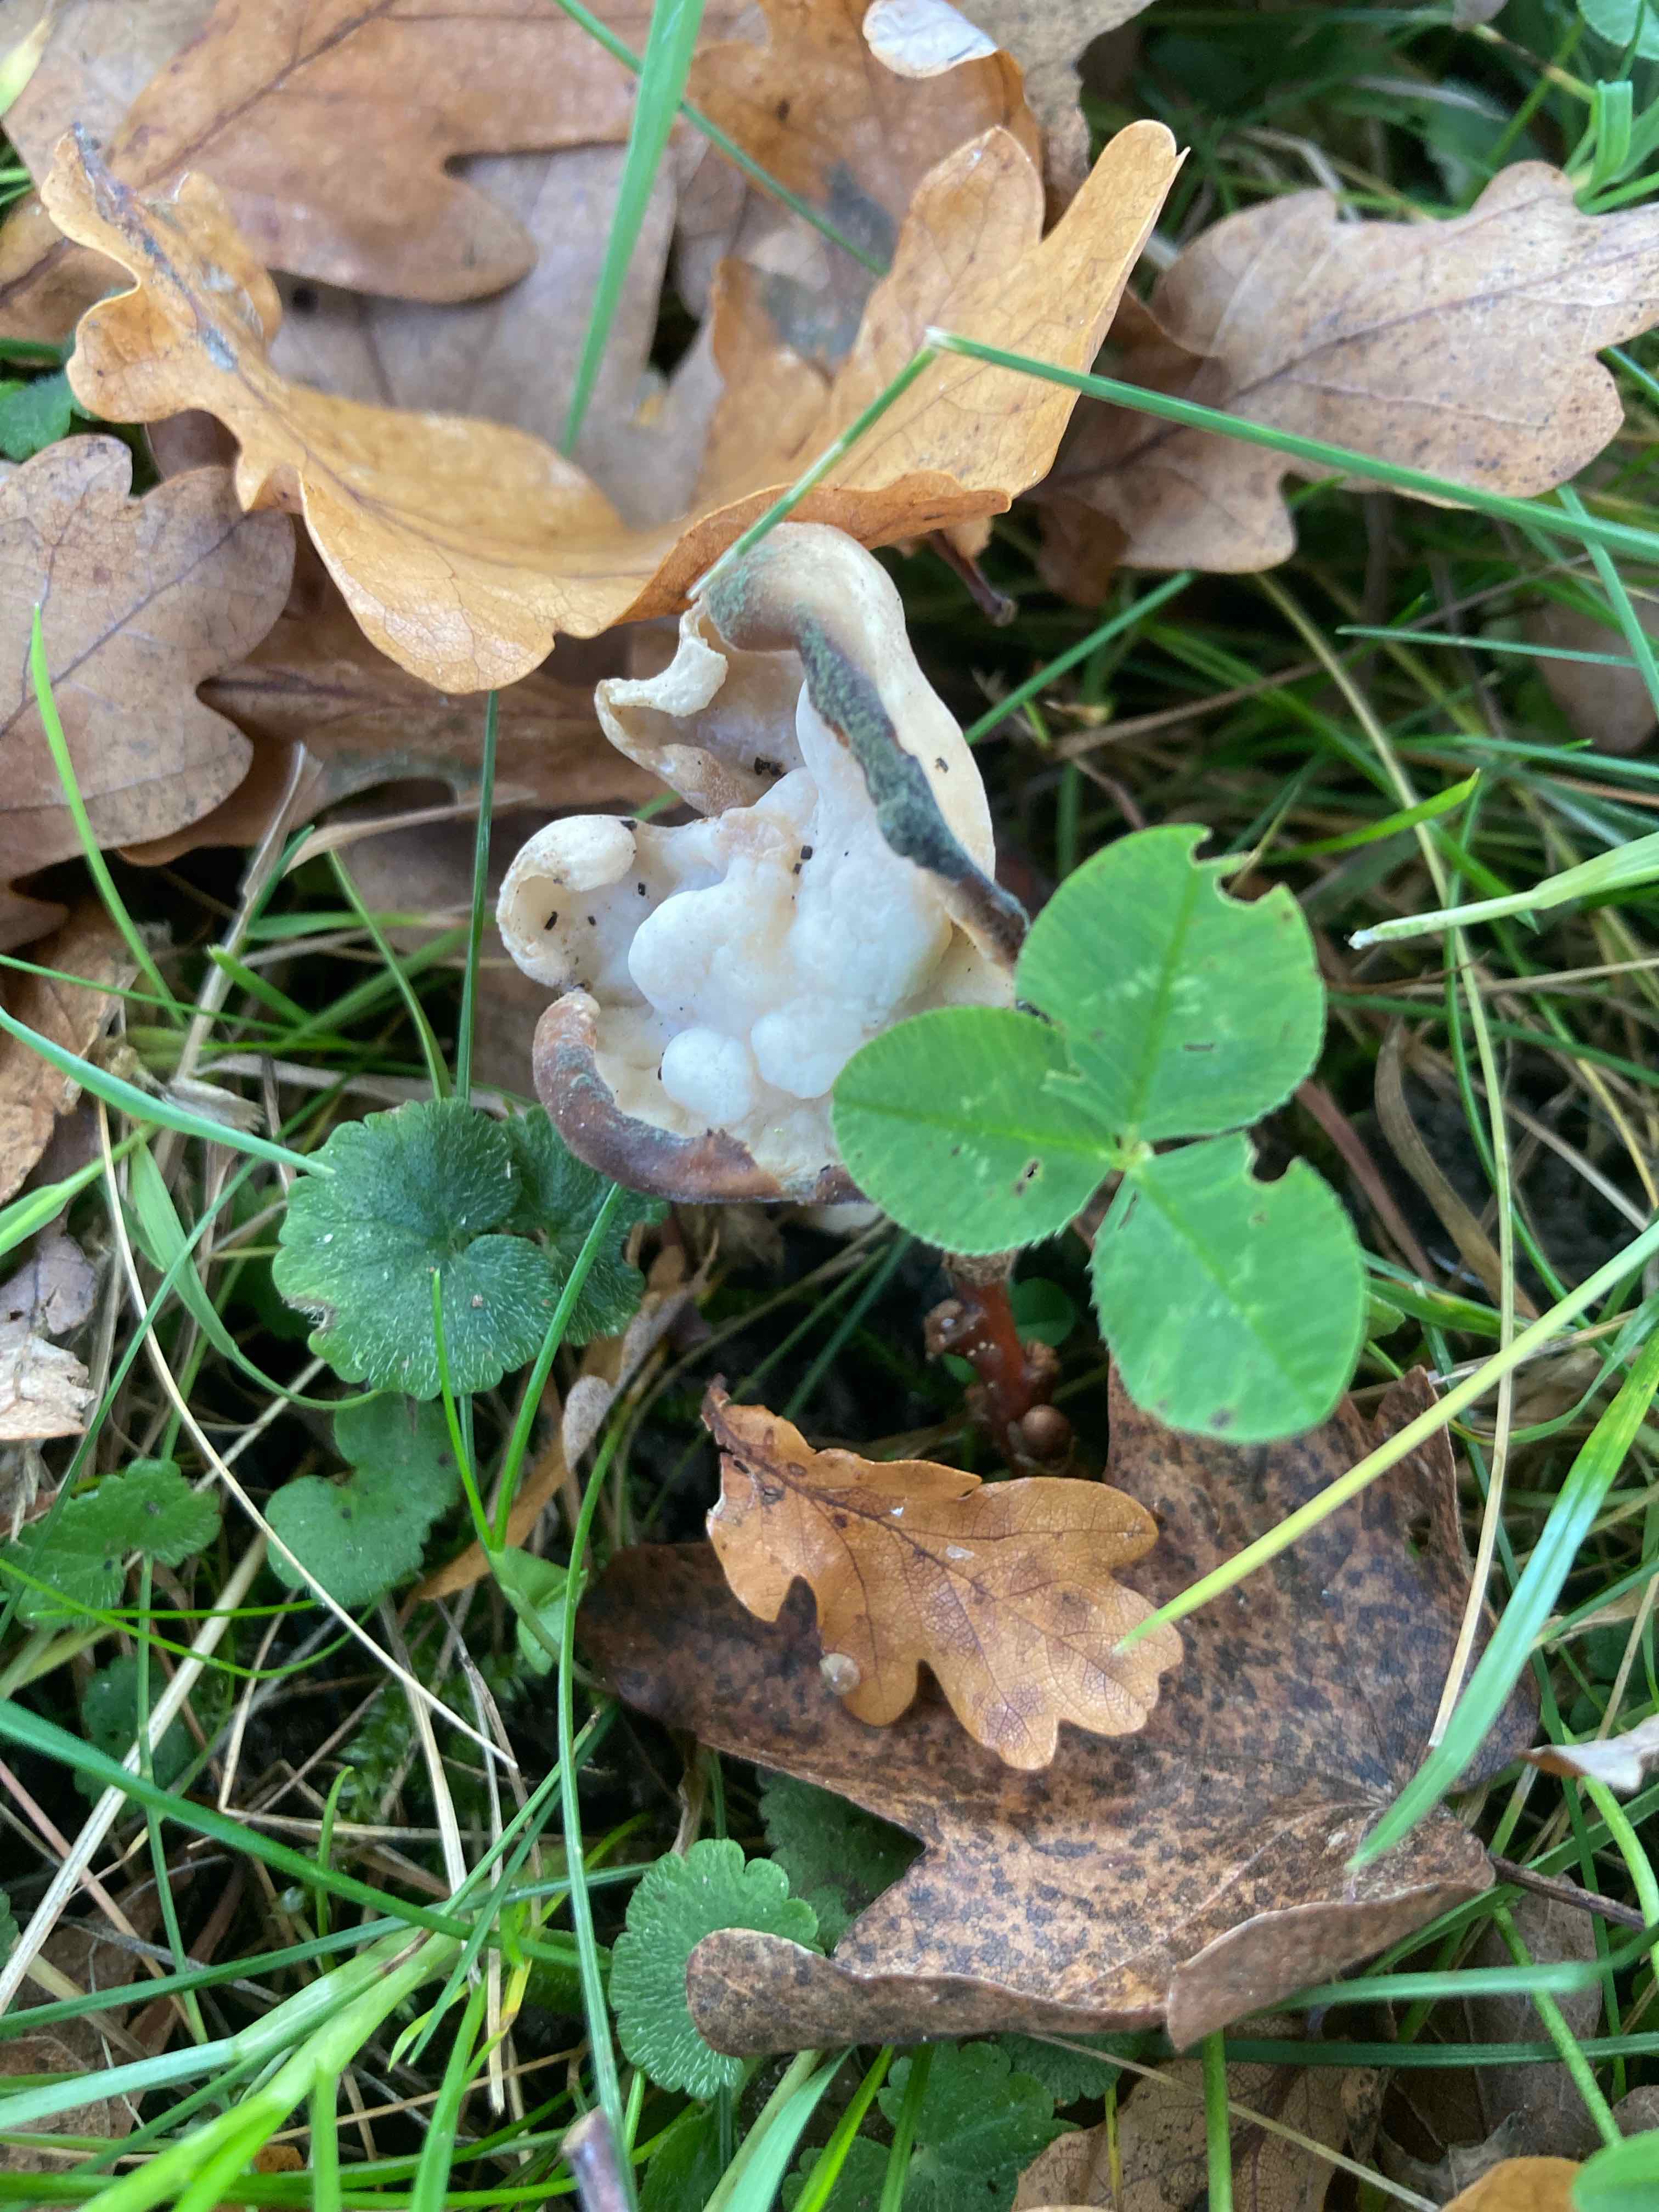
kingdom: Fungi
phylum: Ascomycota
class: Pezizomycetes
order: Pezizales
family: Helvellaceae
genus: Helvella
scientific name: Helvella crispa
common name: kruset foldhat
